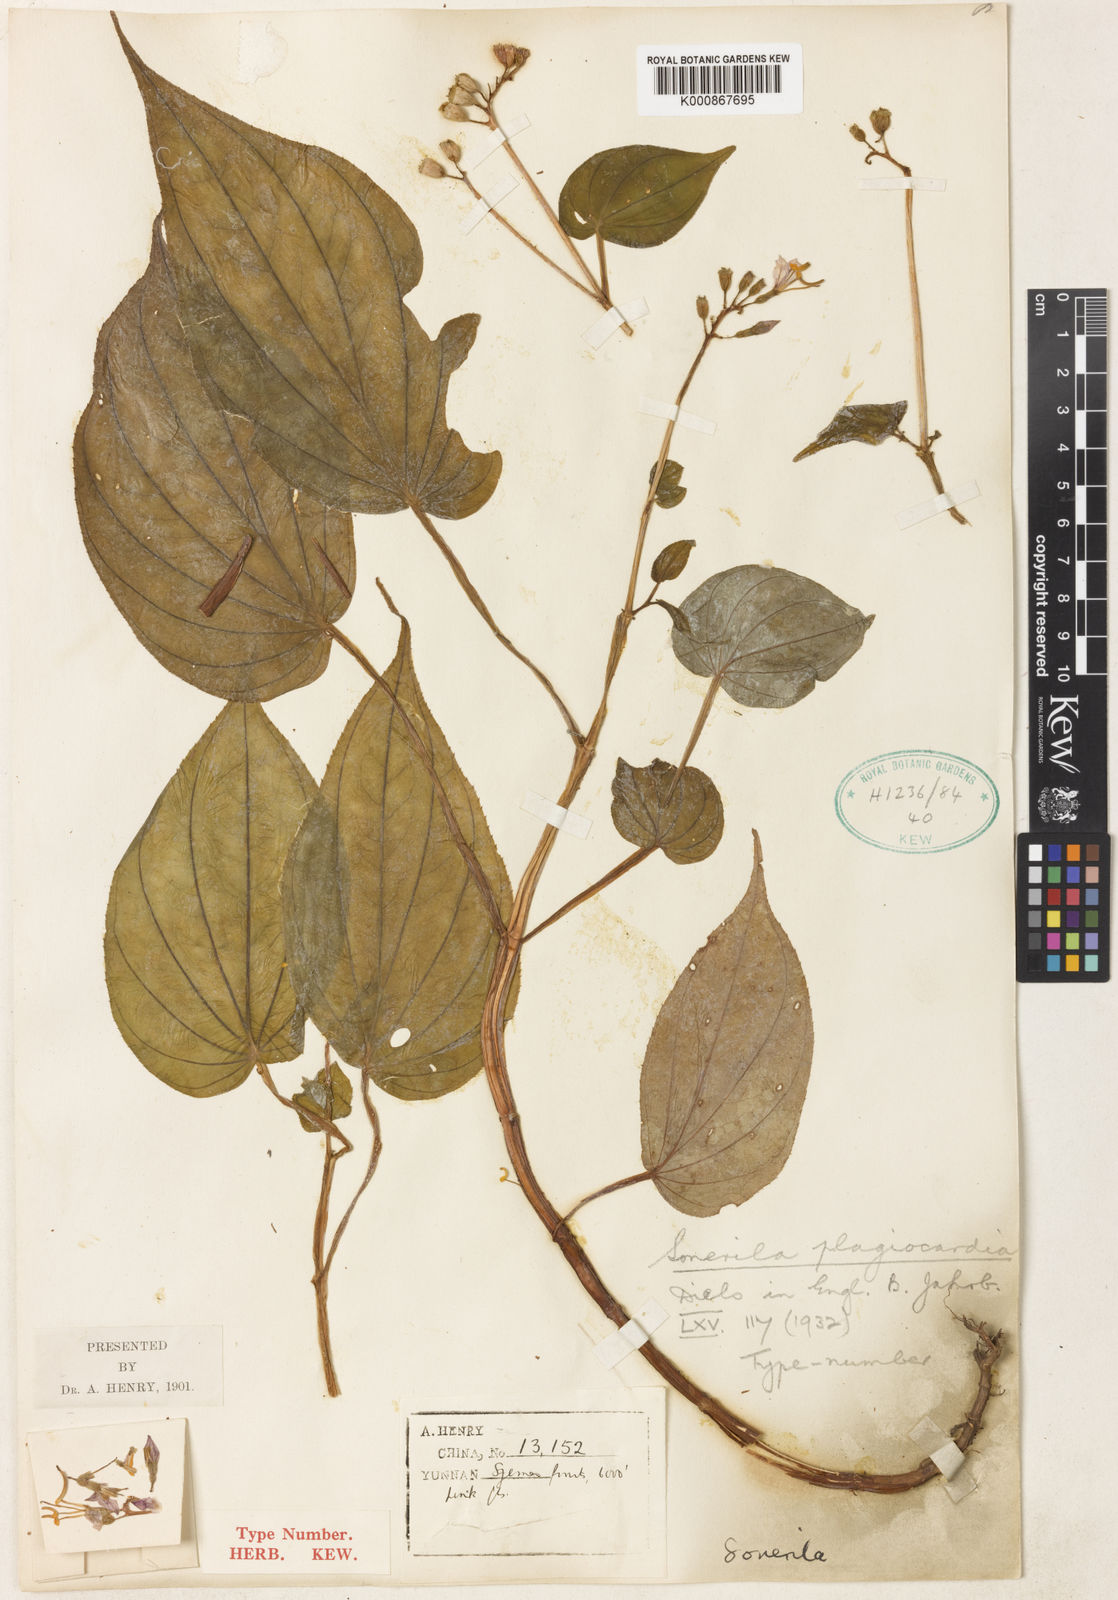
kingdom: Plantae
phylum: Tracheophyta
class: Magnoliopsida
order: Myrtales
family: Melastomataceae
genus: Sonerila
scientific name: Sonerila plagiocardia
